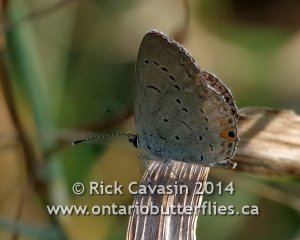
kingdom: Animalia
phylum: Arthropoda
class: Insecta
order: Lepidoptera
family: Lycaenidae
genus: Elkalyce
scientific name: Elkalyce comyntas
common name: Eastern Tailed-Blue
